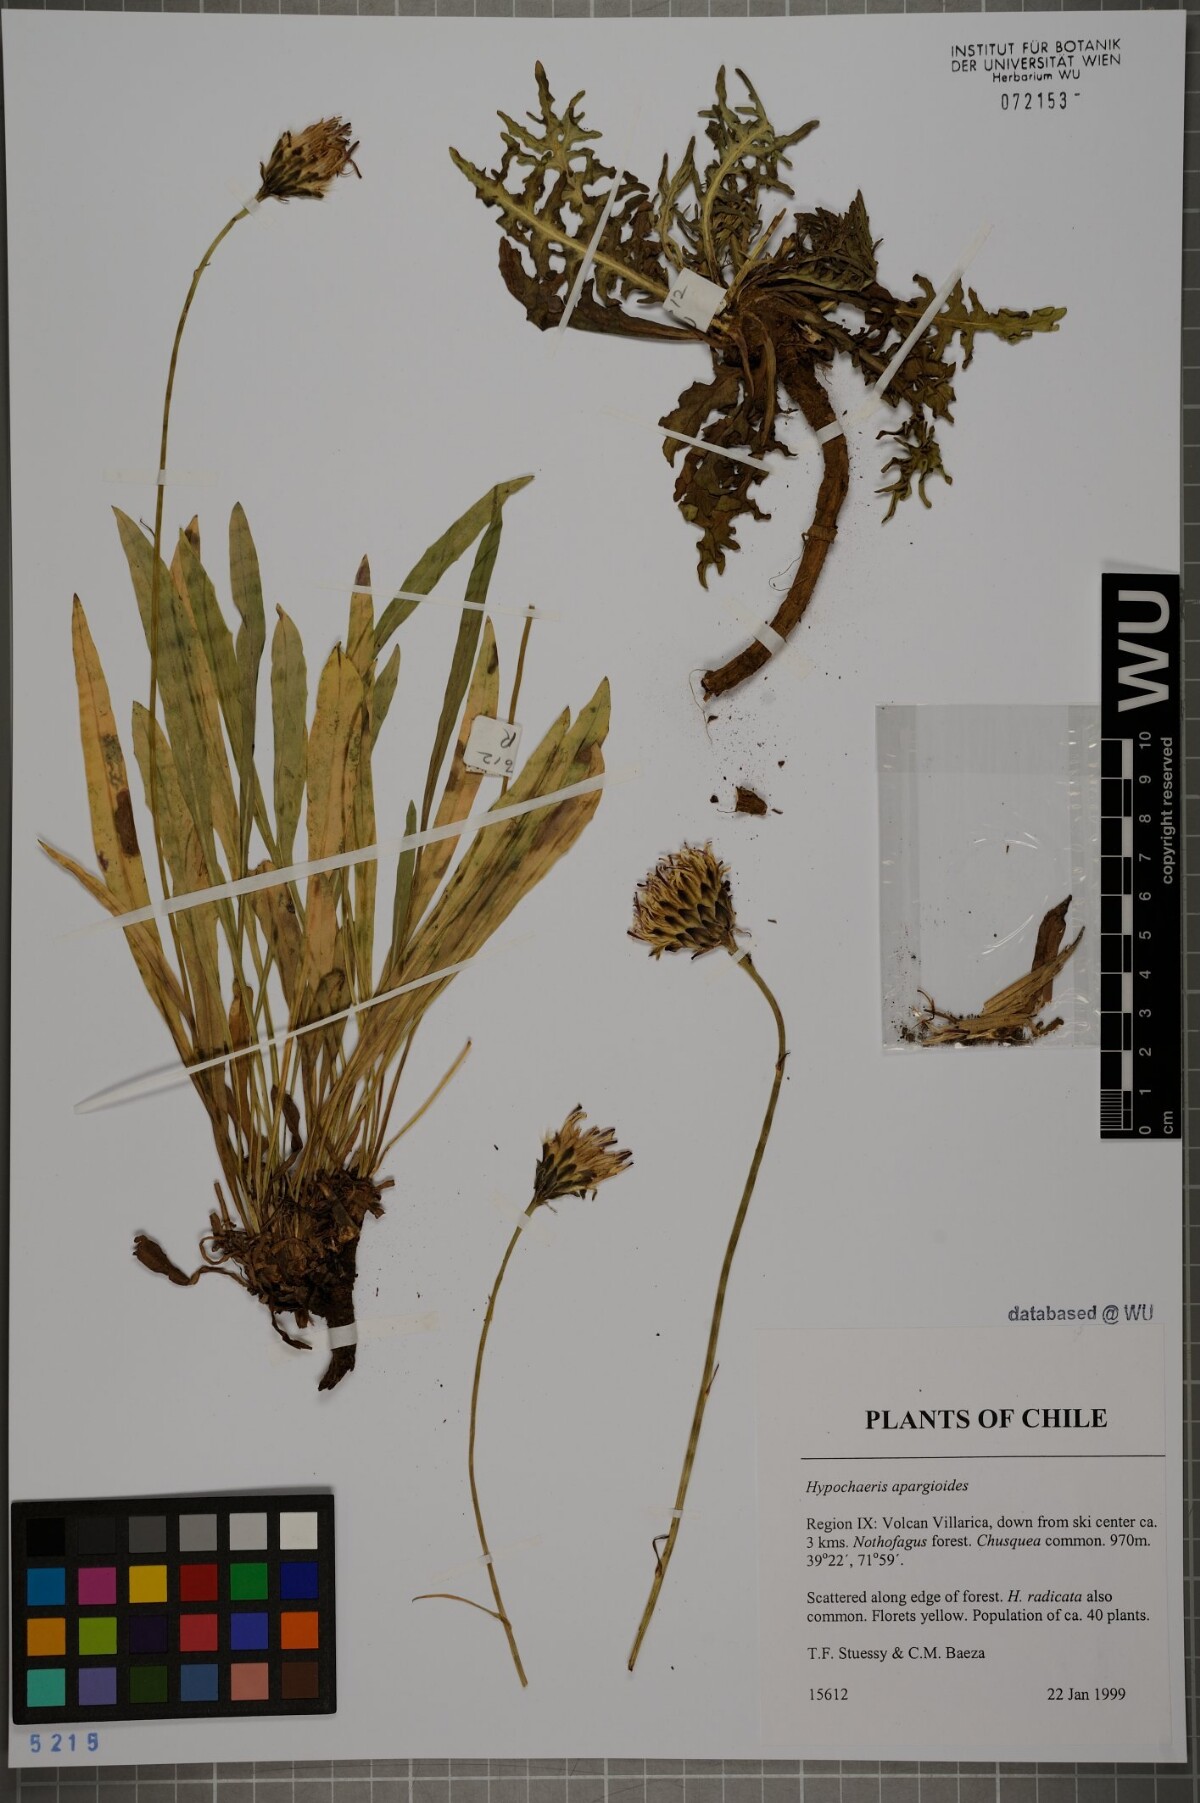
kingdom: Plantae
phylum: Tracheophyta
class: Magnoliopsida
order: Asterales
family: Asteraceae
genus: Hypochaeris
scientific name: Hypochaeris apargioides
